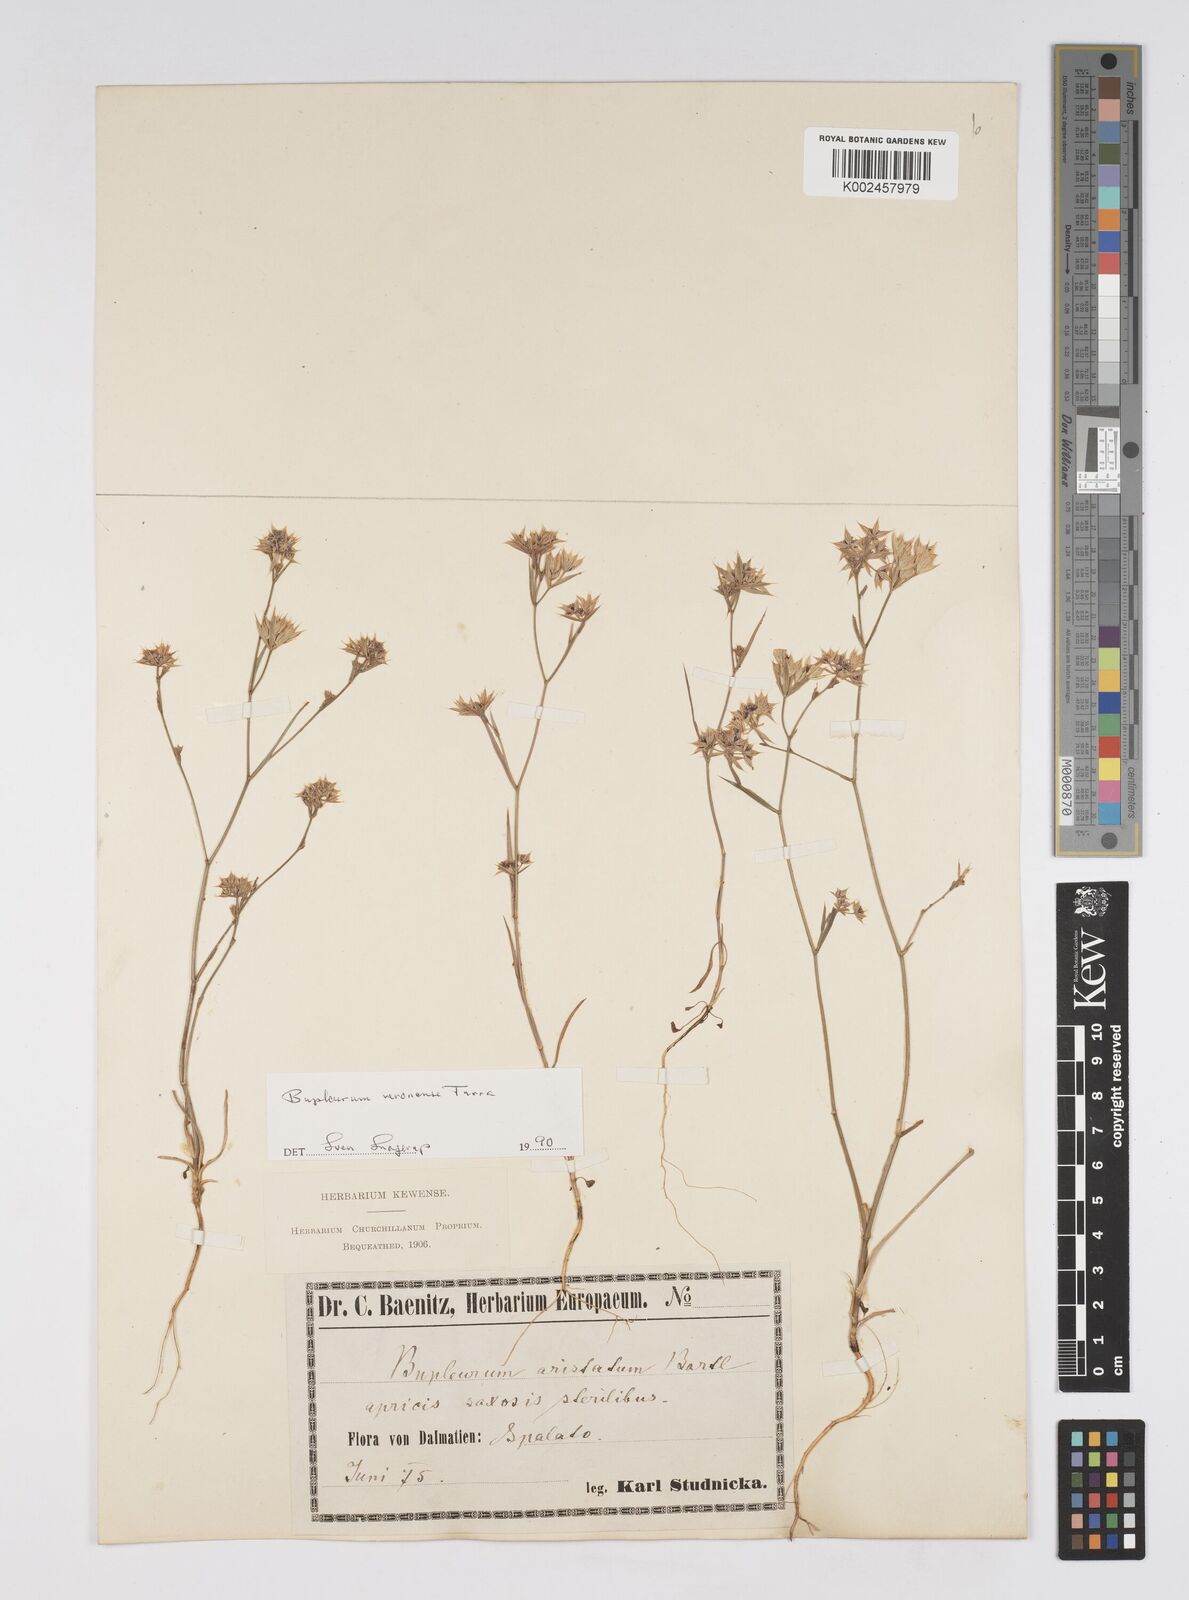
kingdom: Plantae
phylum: Tracheophyta
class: Magnoliopsida
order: Apiales
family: Apiaceae
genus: Bupleurum
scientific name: Bupleurum glumaceum
